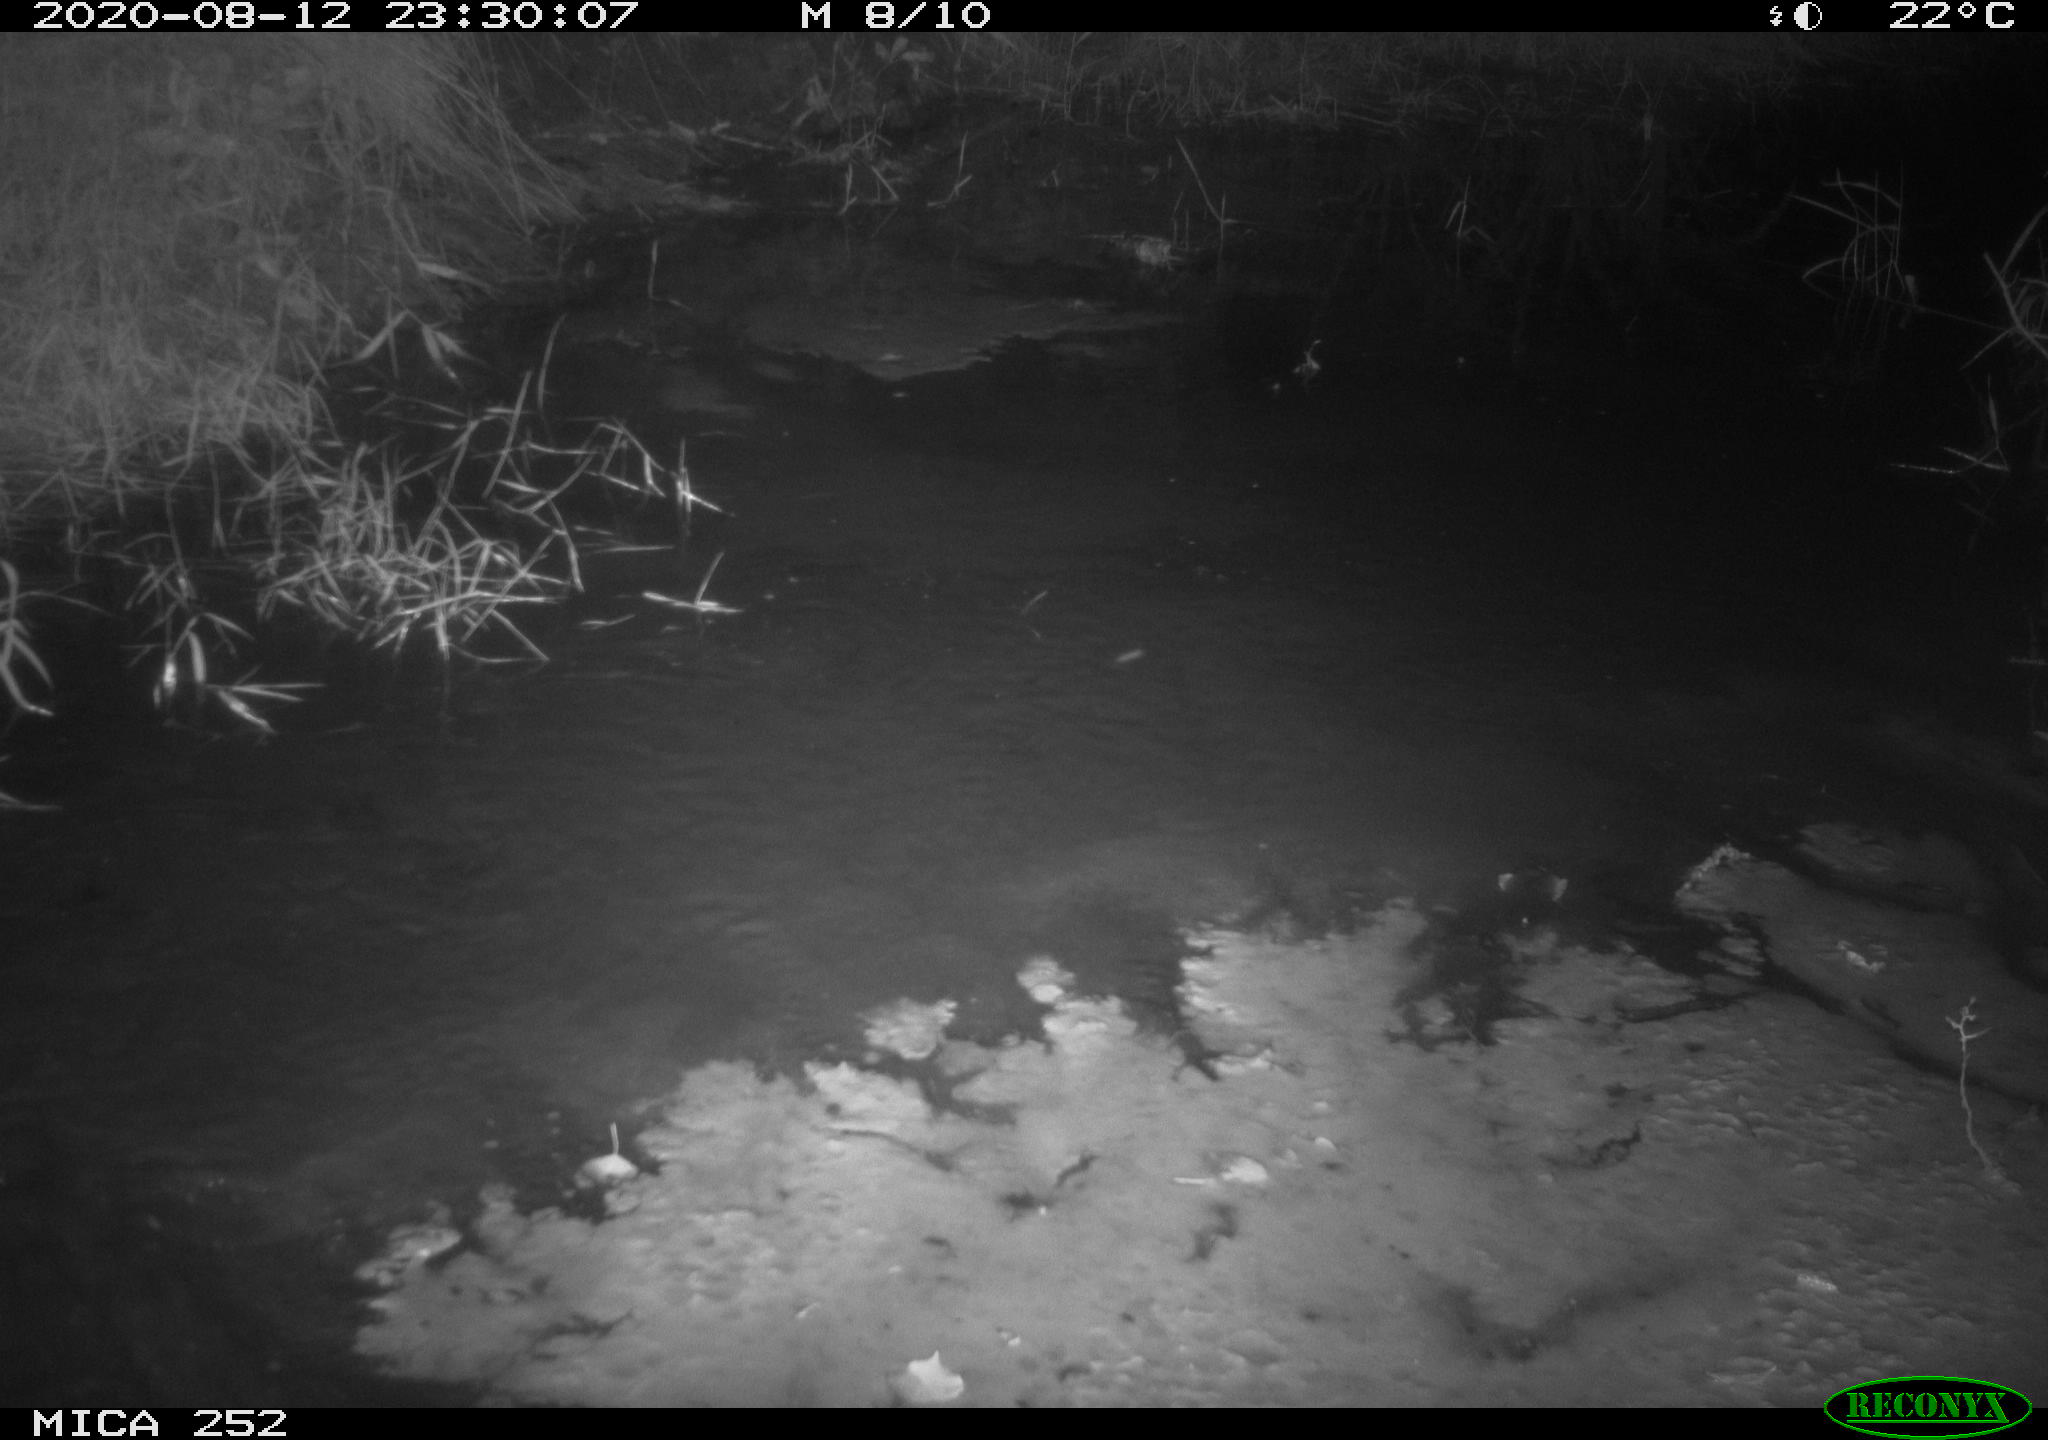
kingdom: Animalia
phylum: Chordata
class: Mammalia
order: Rodentia
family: Castoridae
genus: Castor
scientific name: Castor fiber
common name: Eurasian beaver
